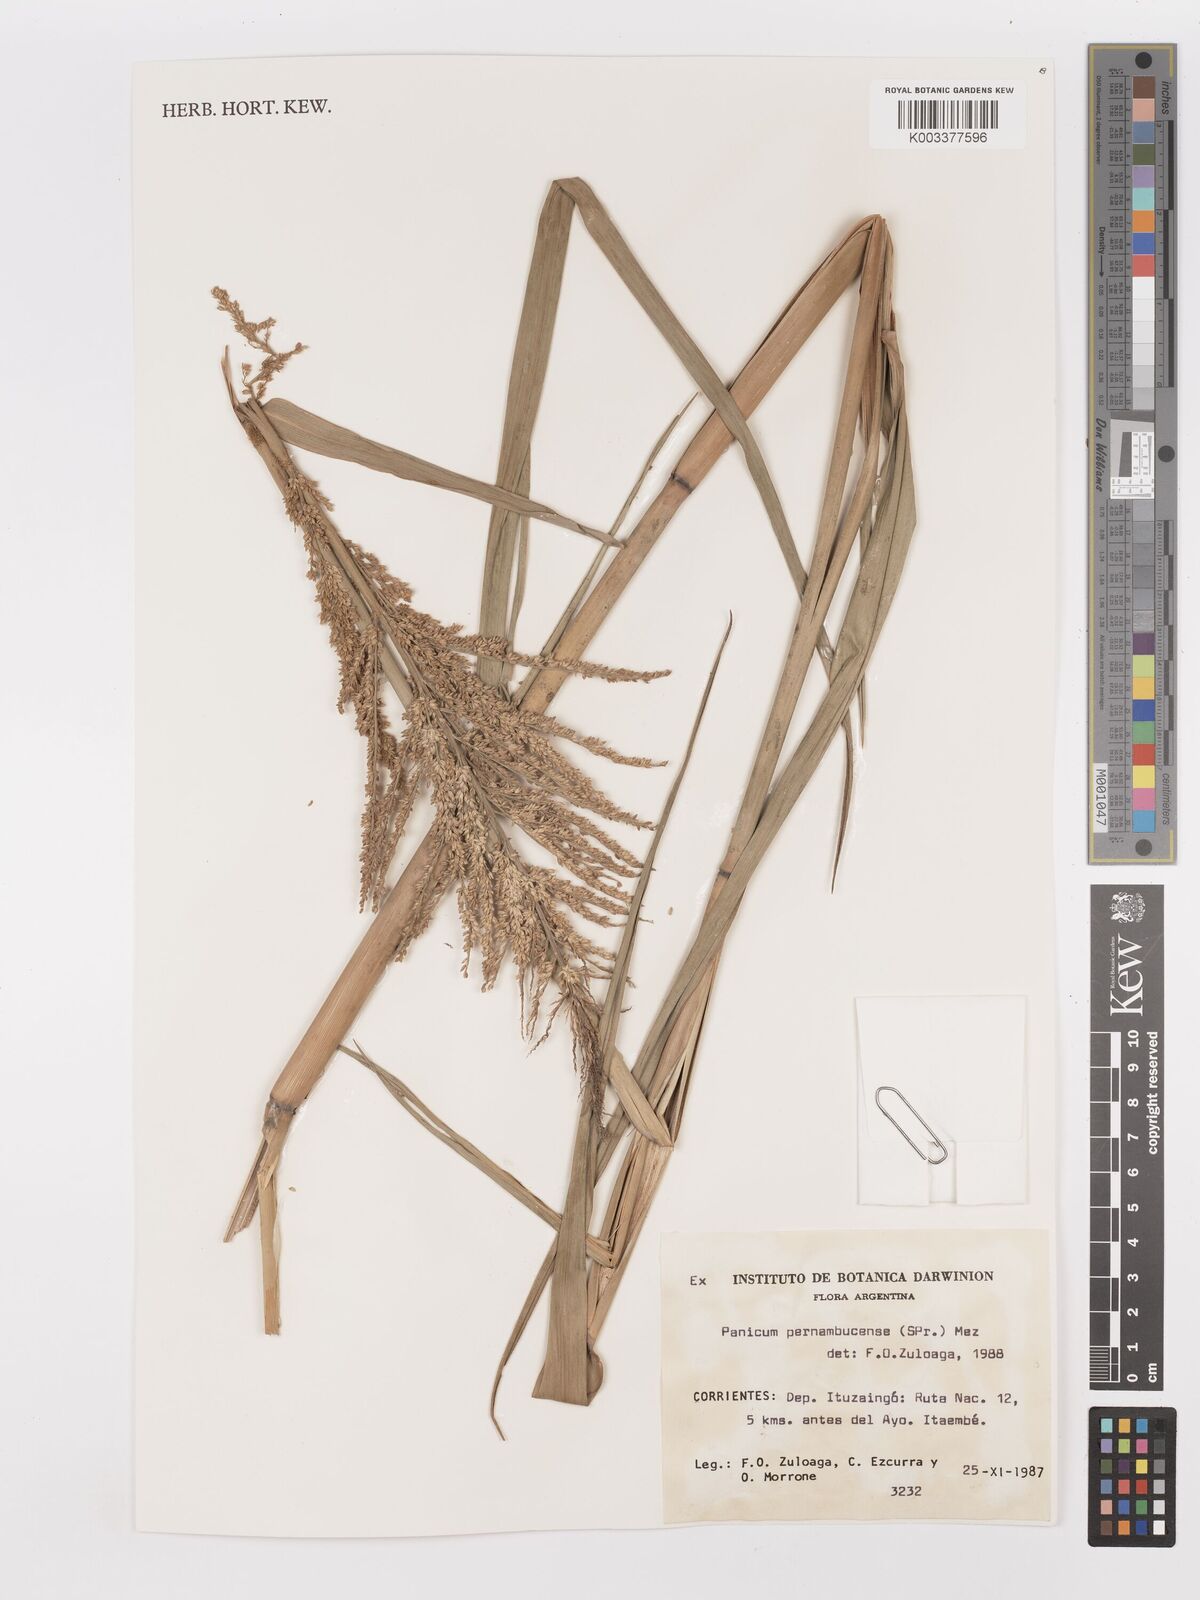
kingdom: Plantae
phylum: Tracheophyta
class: Liliopsida
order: Poales
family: Poaceae
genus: Hymenachne
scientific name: Hymenachne pernambucensis
